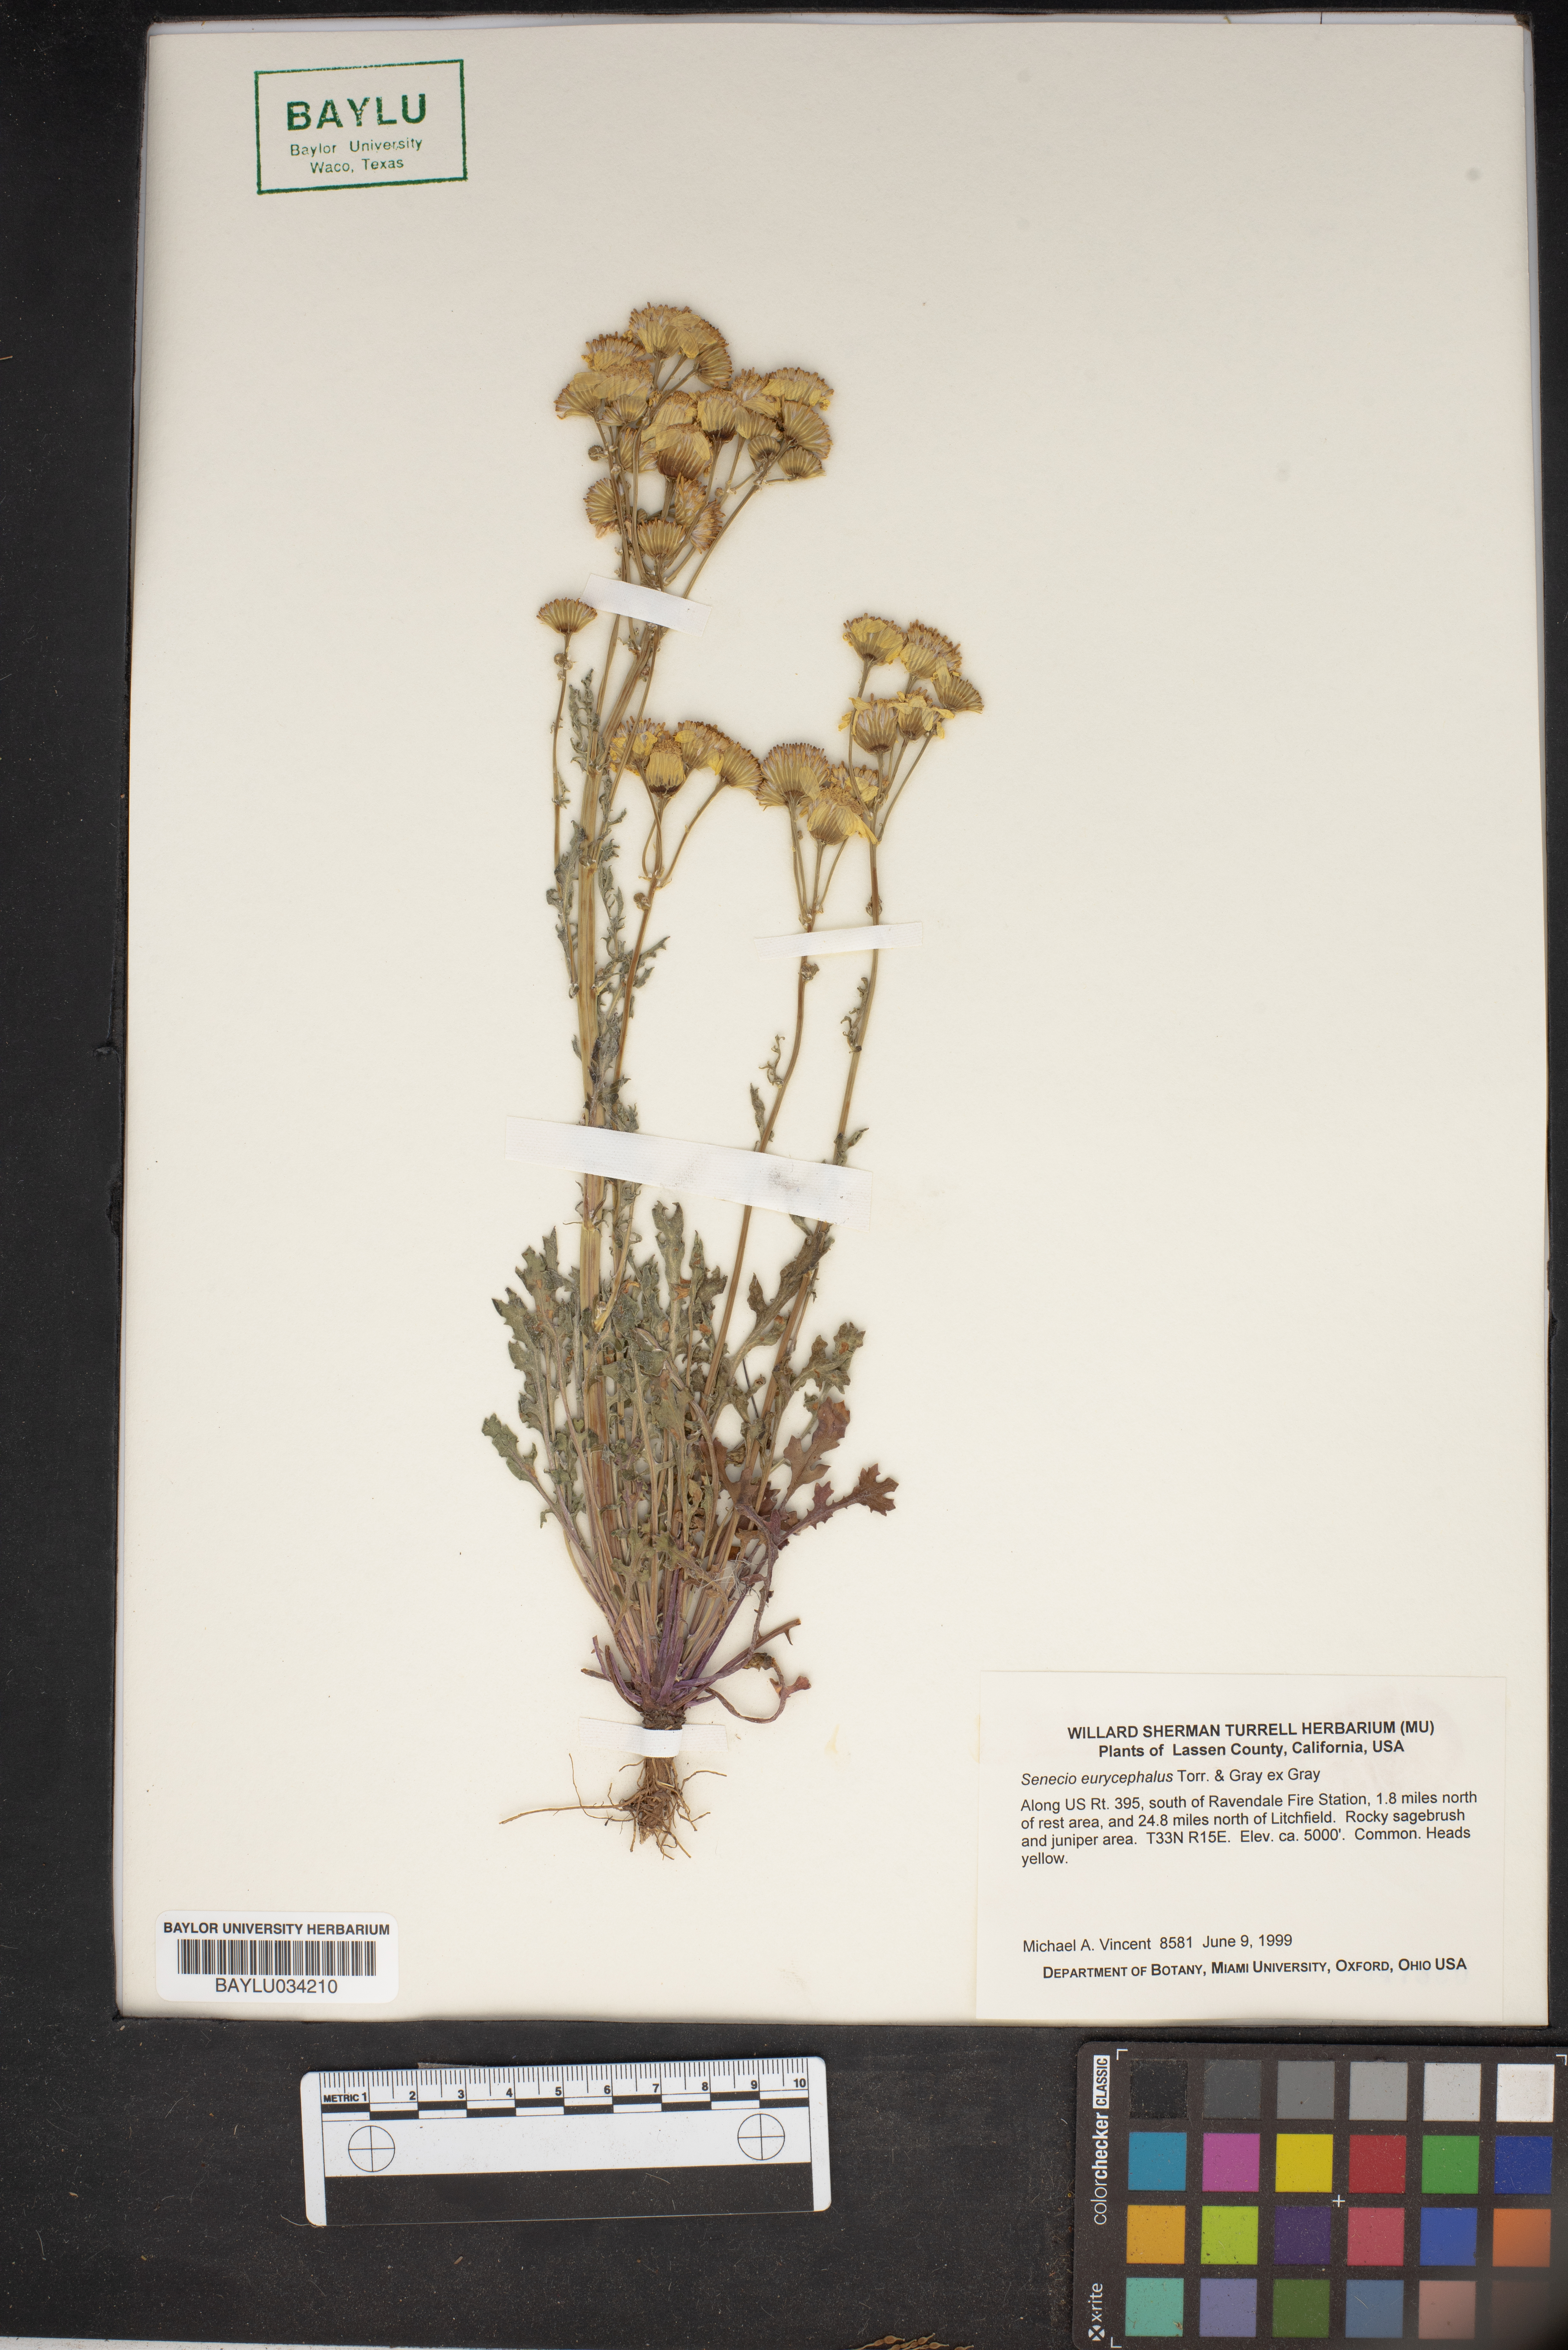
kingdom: Plantae
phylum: Tracheophyta
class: Magnoliopsida
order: Asterales
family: Asteraceae
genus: Packera
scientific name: Packera eurycephala
